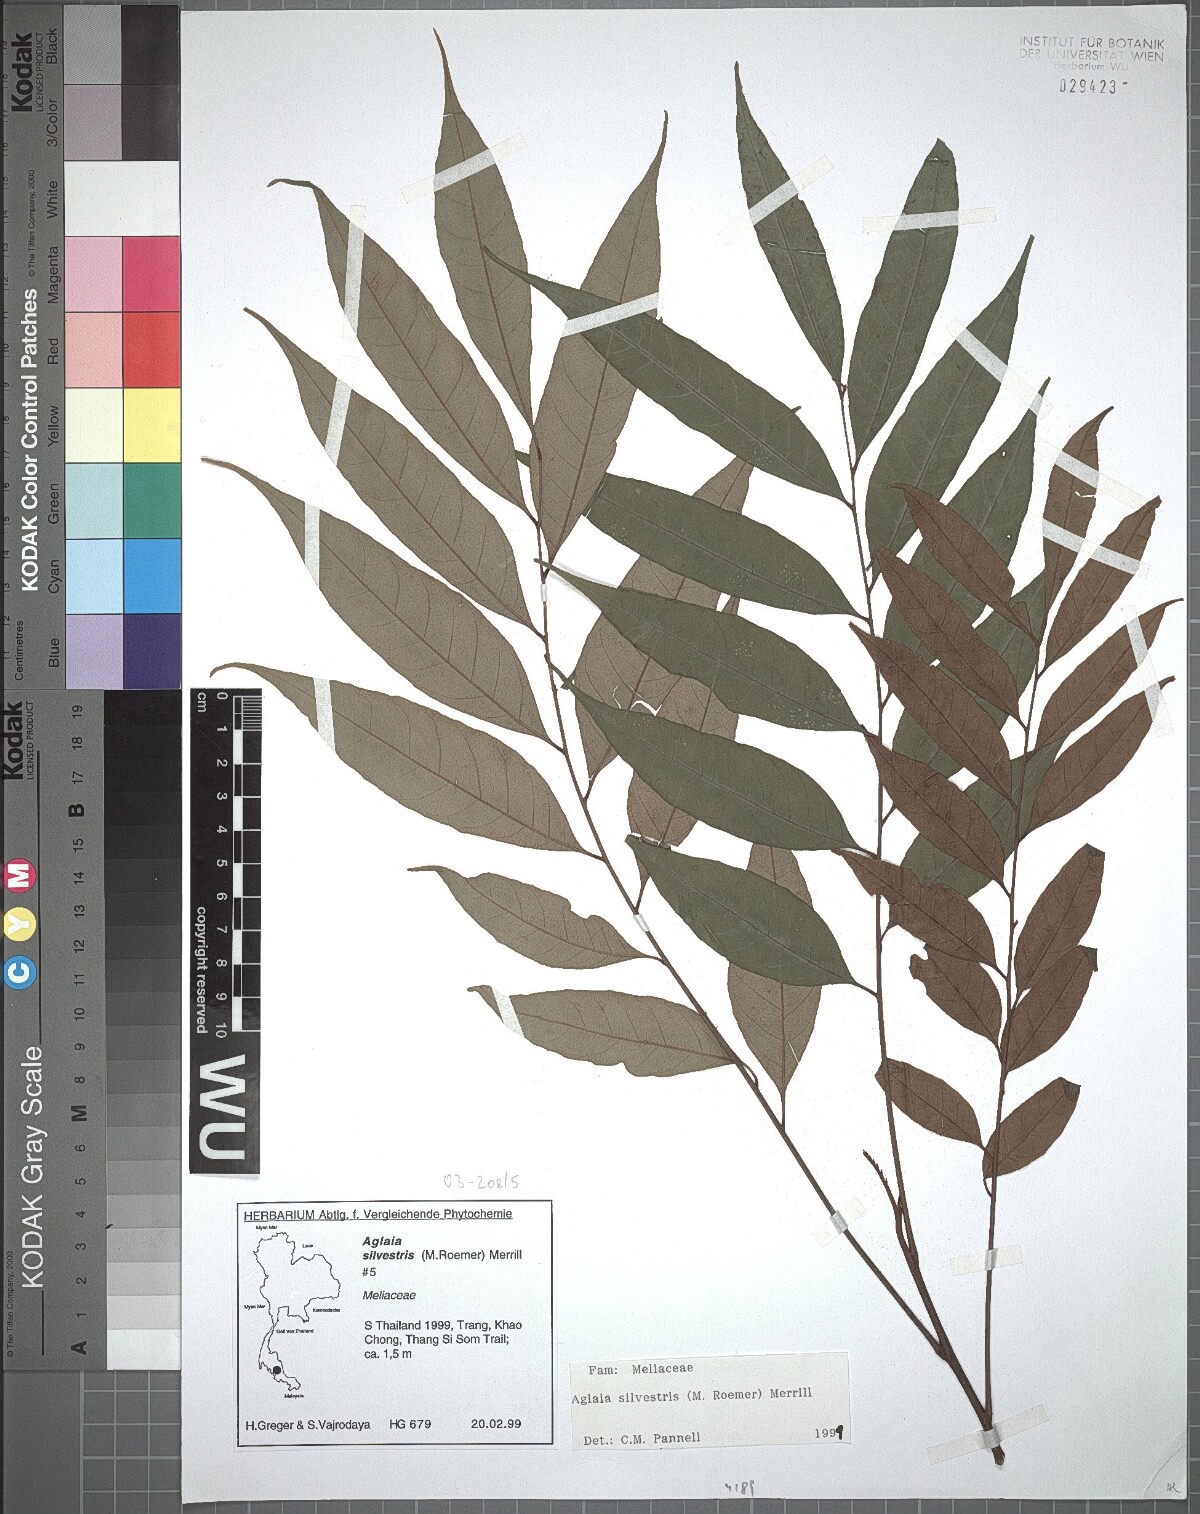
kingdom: Plantae
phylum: Tracheophyta
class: Magnoliopsida
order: Sapindales
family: Meliaceae
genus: Aglaia
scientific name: Aglaia silvestris
